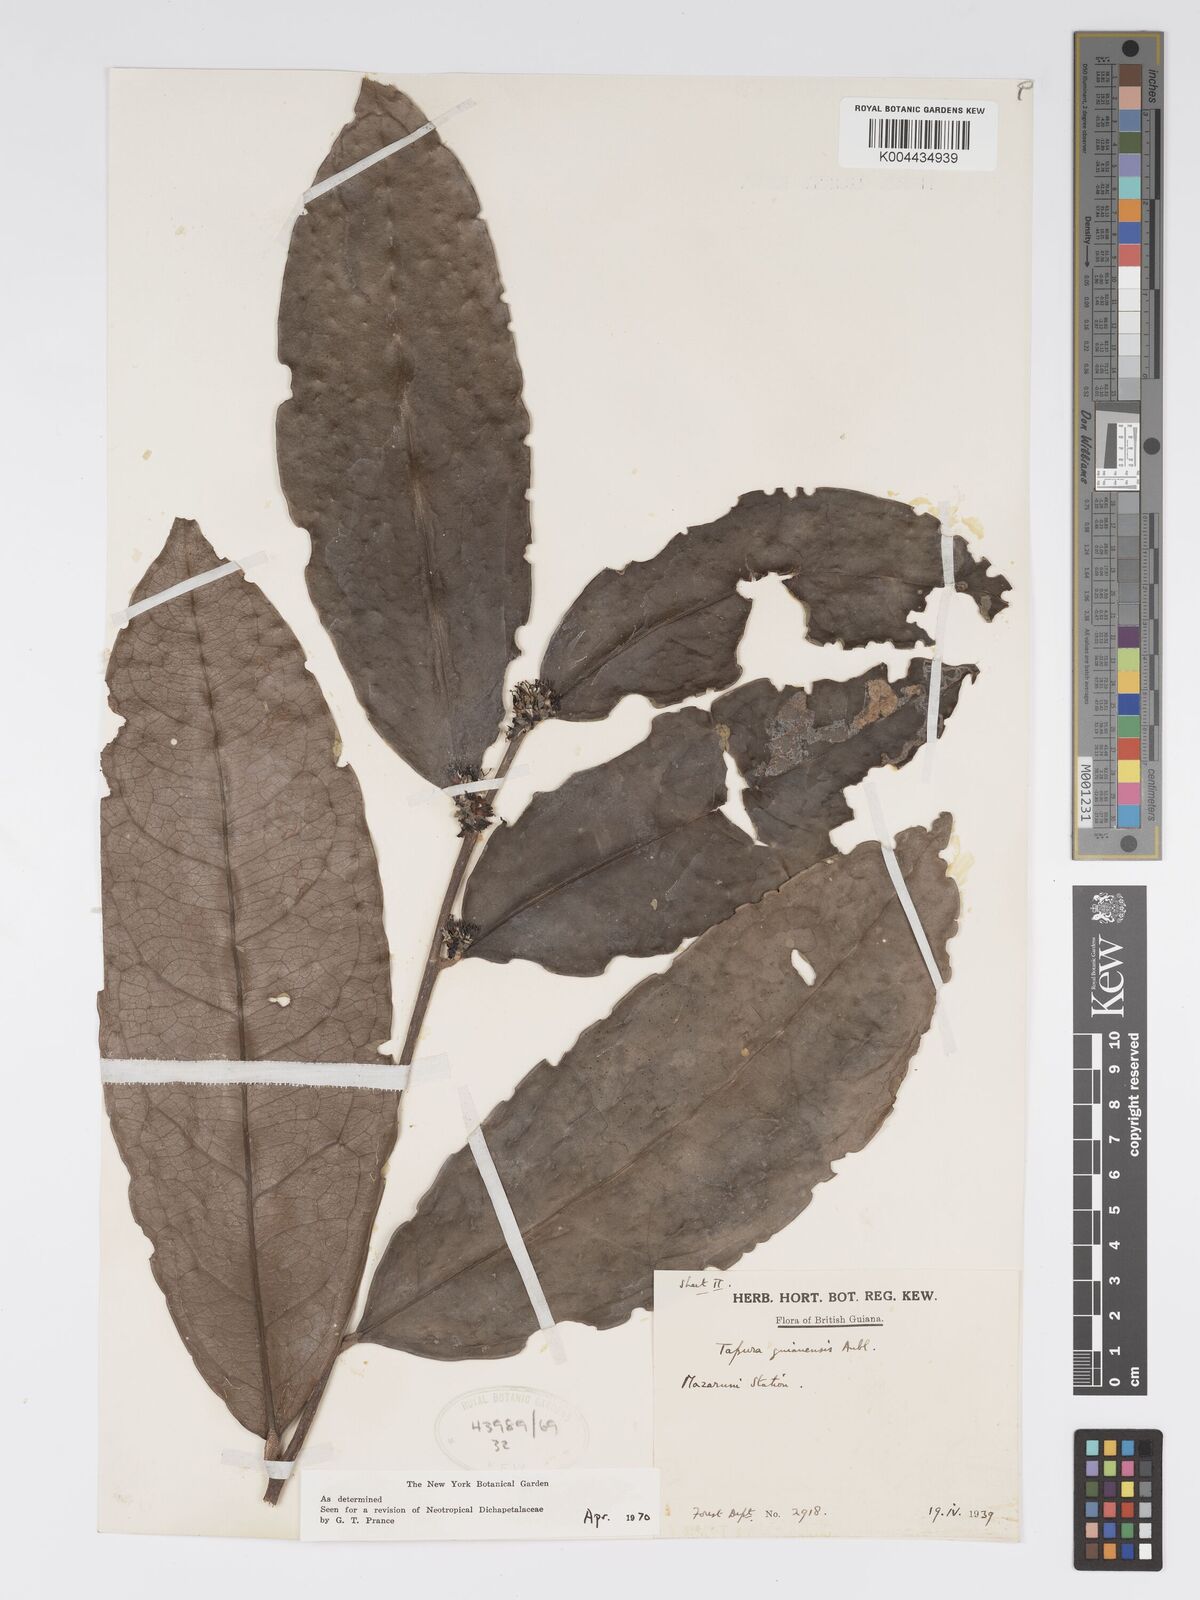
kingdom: Plantae
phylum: Tracheophyta
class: Magnoliopsida
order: Malpighiales
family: Dichapetalaceae
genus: Tapura
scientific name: Tapura guianensis
